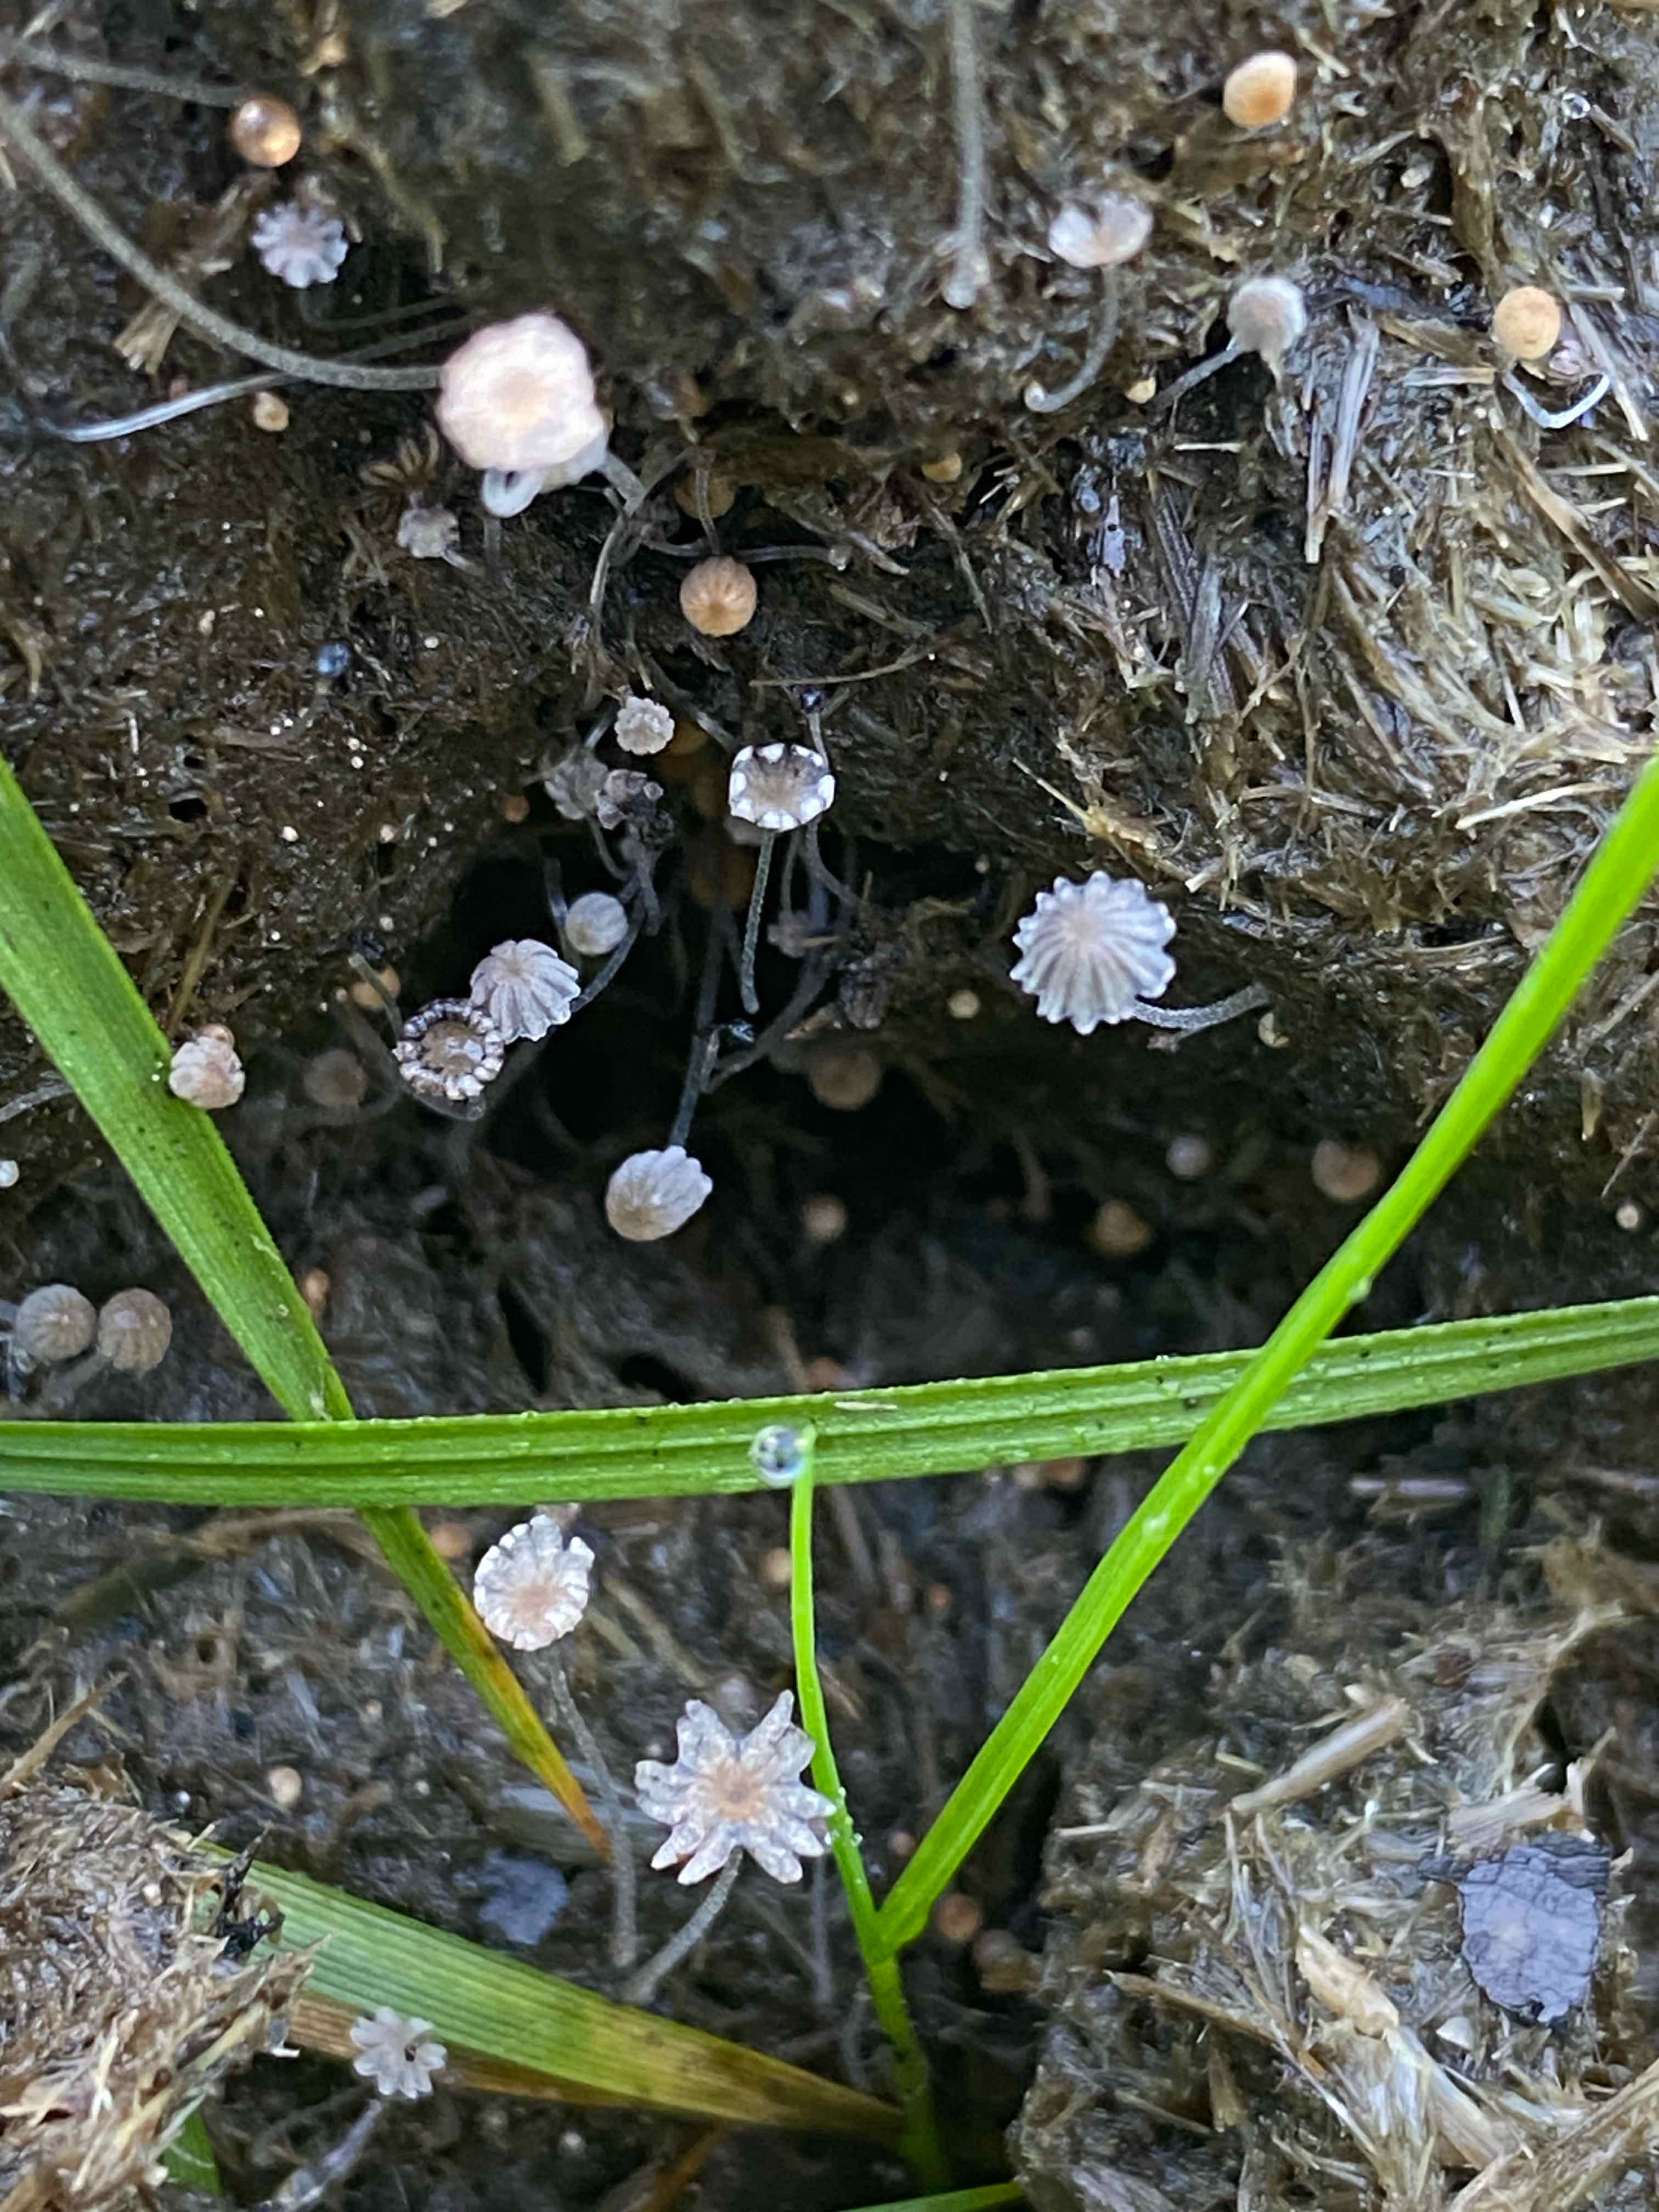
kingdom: Fungi
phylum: Basidiomycota
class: Agaricomycetes
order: Agaricales
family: Psathyrellaceae
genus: Parasola
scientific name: Parasola misera
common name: lillebitte hjulhat
